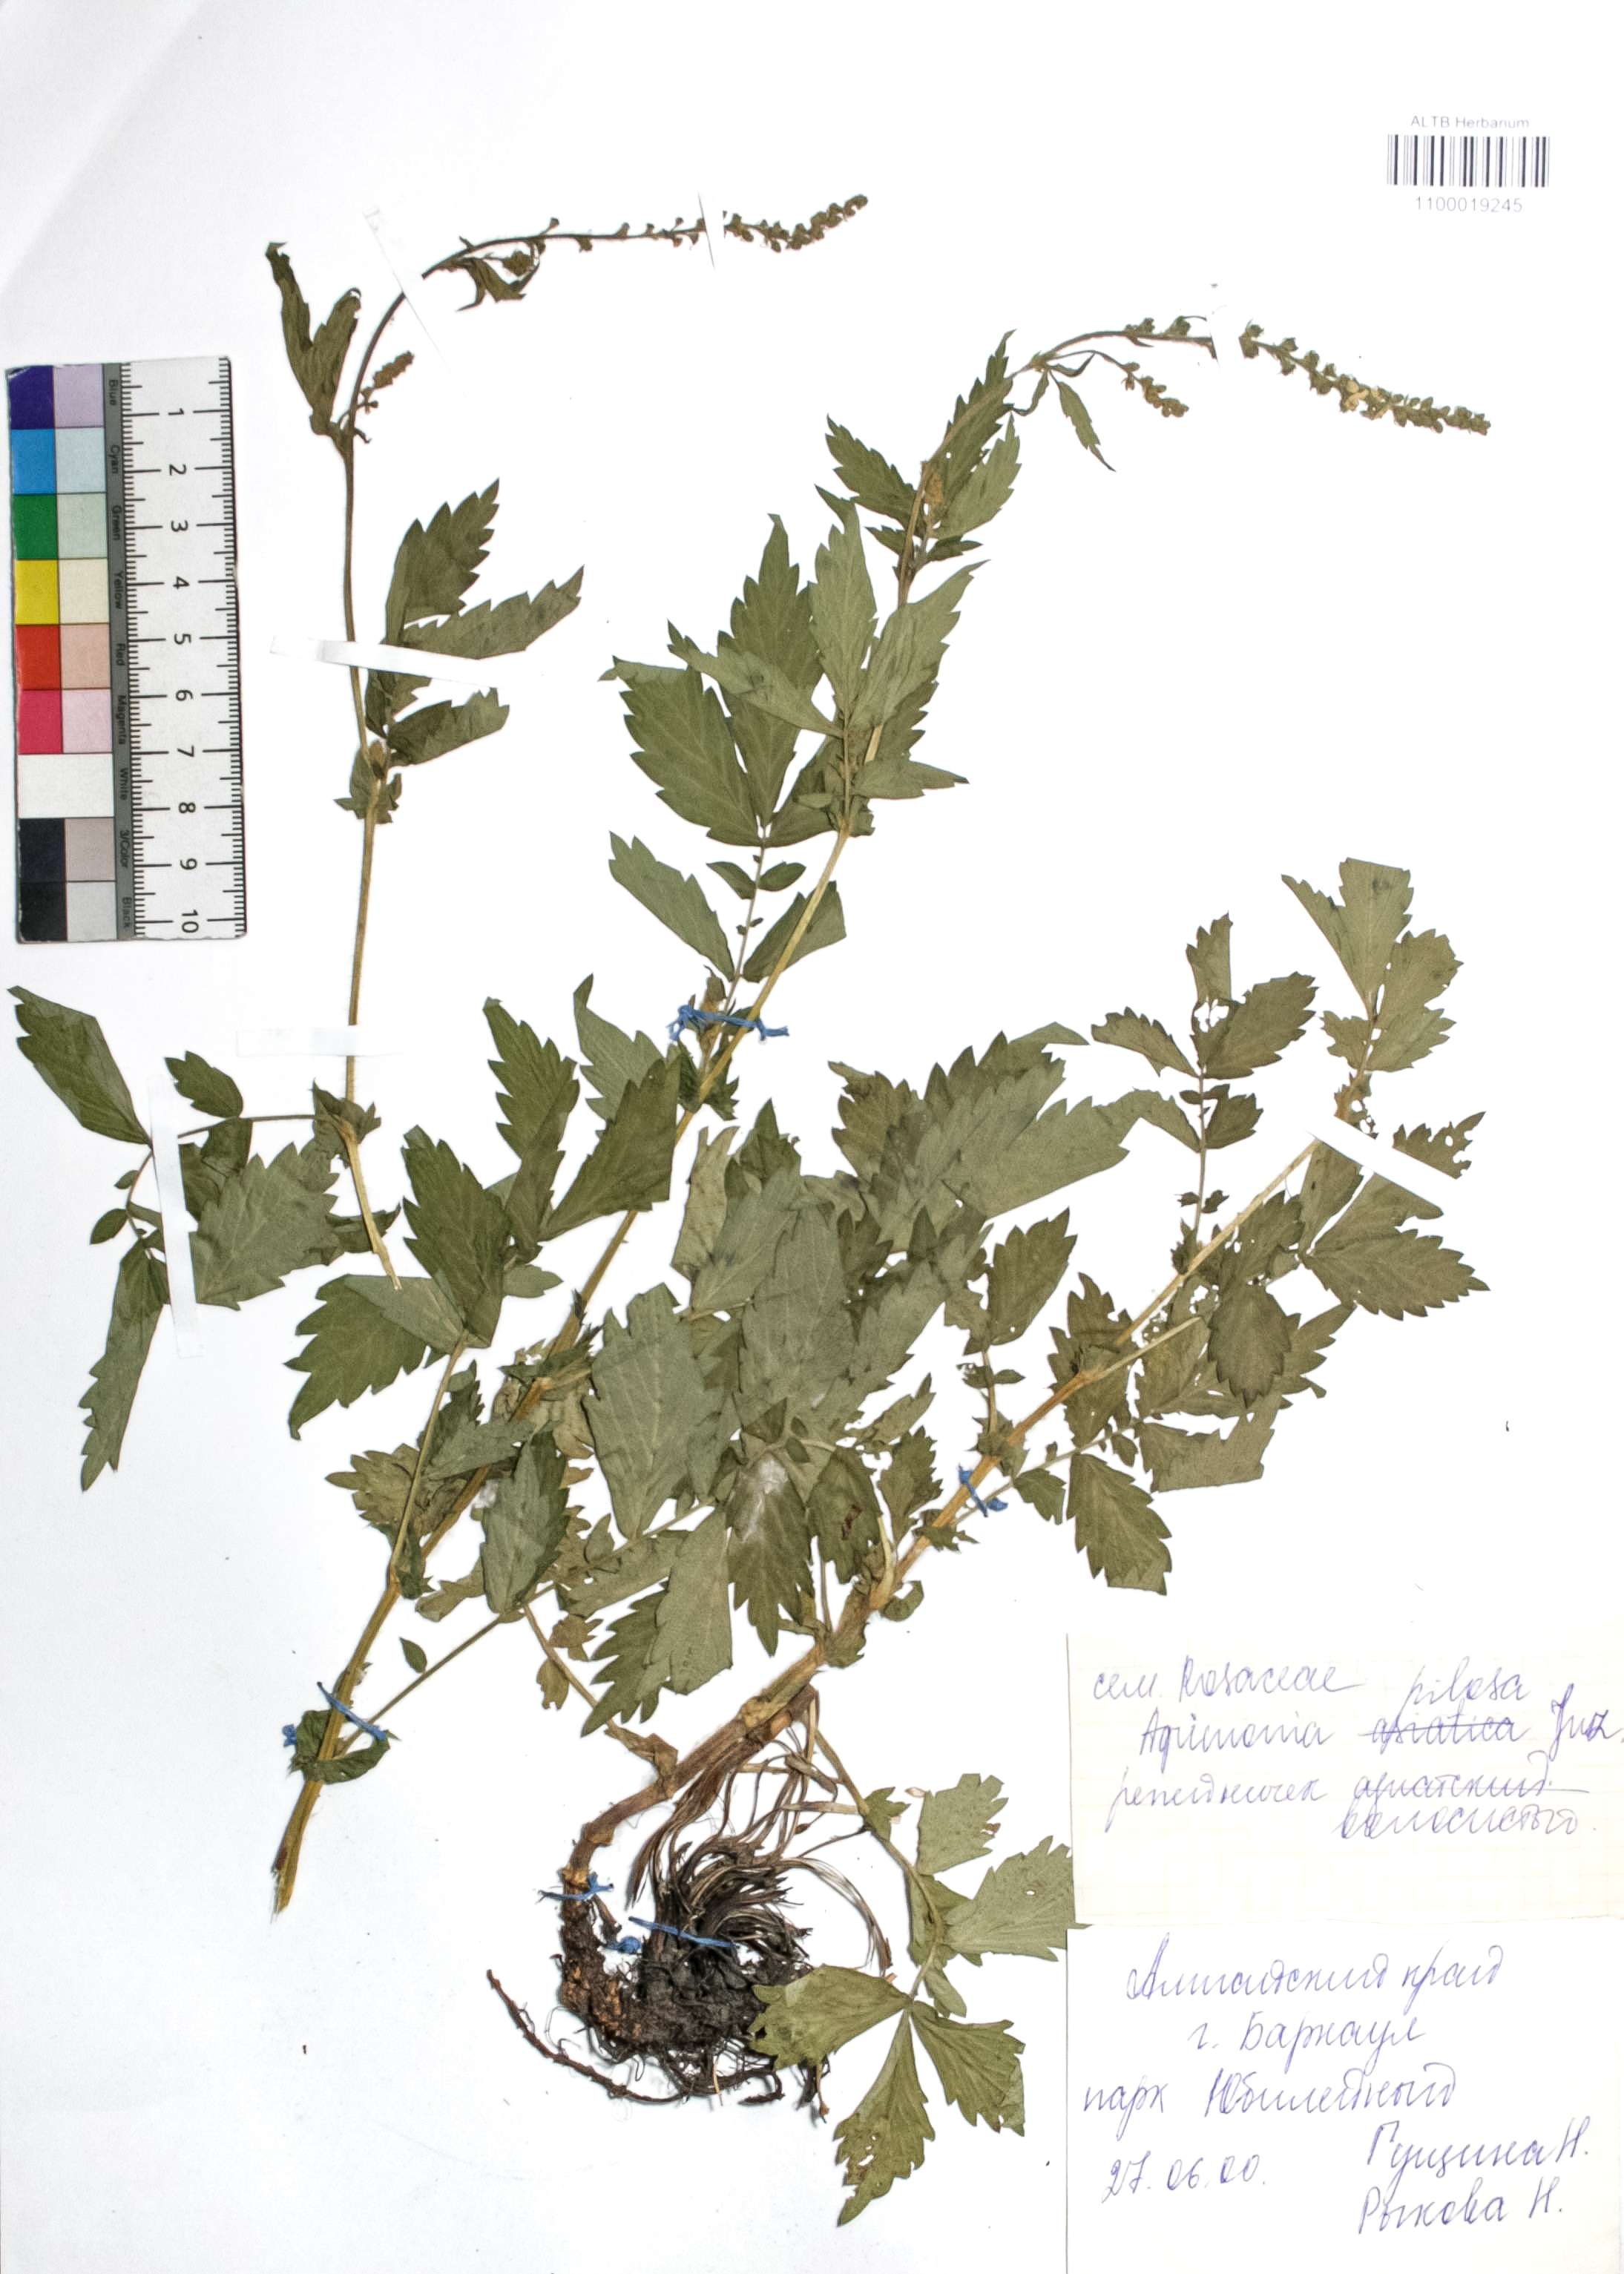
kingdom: Plantae
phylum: Tracheophyta
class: Magnoliopsida
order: Rosales
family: Rosaceae
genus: Agrimonia
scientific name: Agrimonia pilosa
